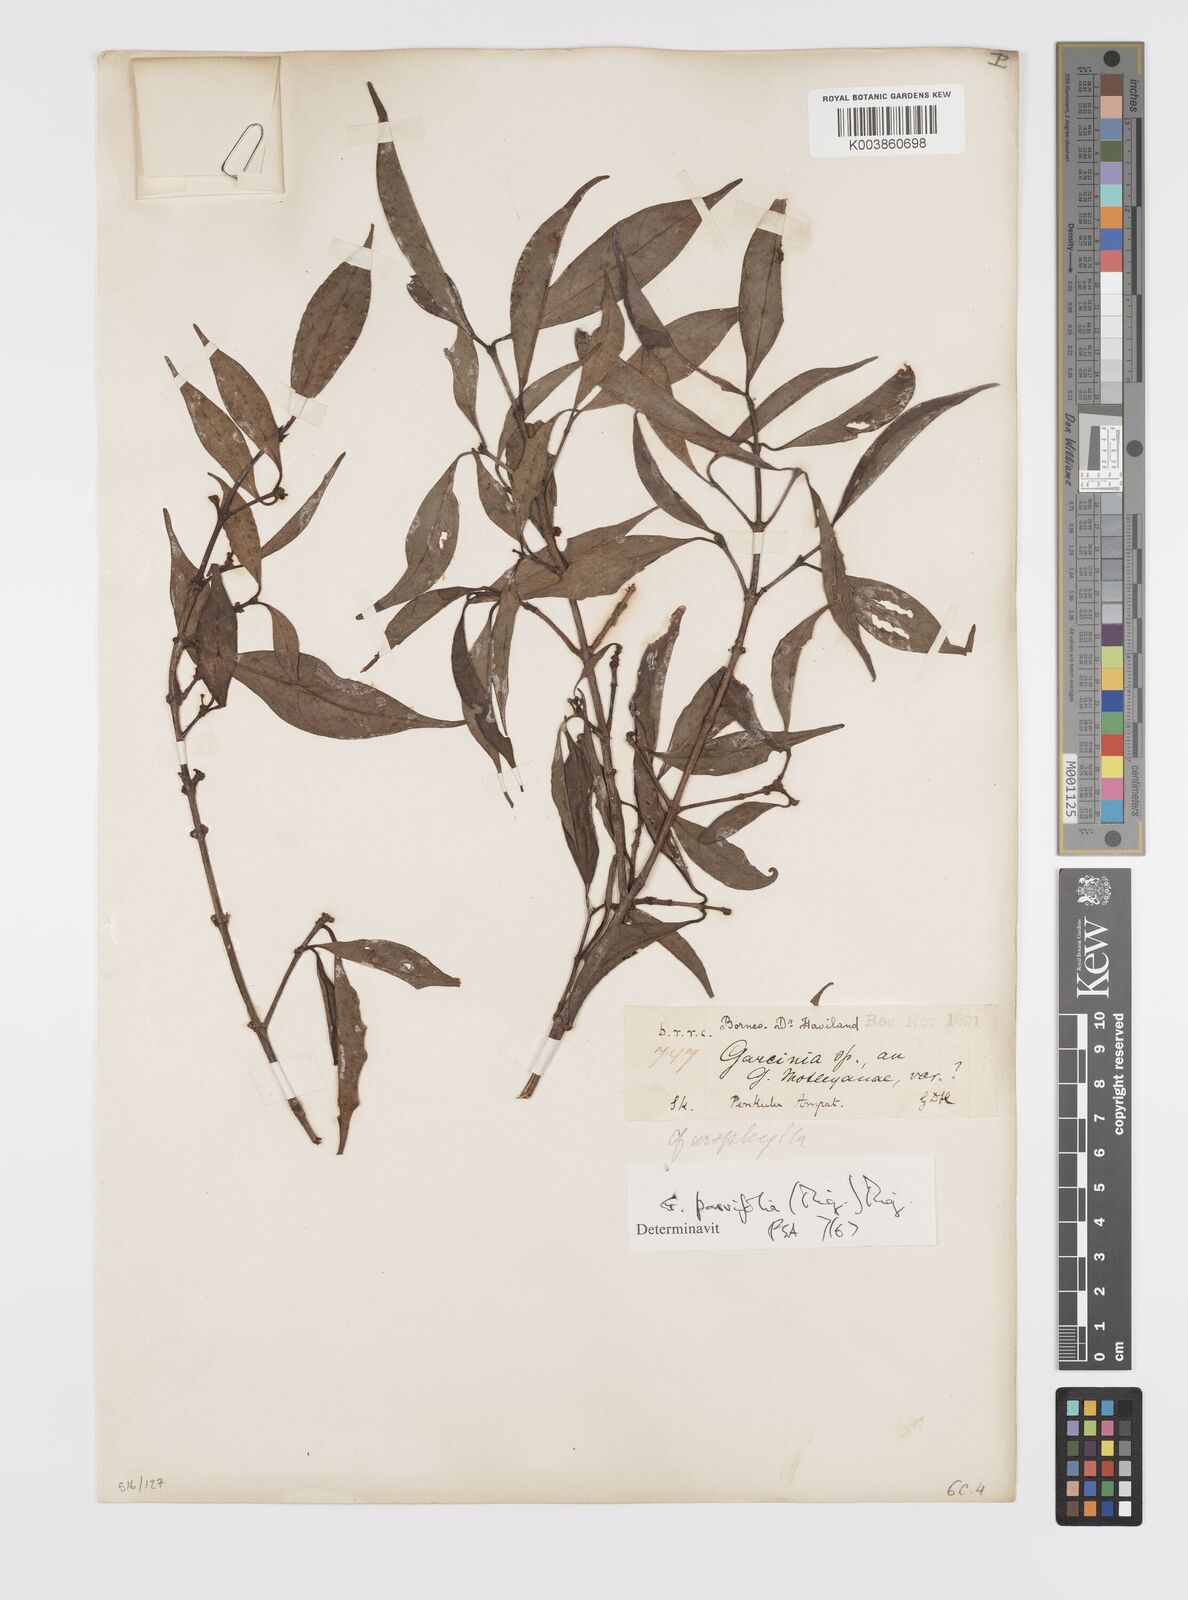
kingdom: Plantae
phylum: Tracheophyta
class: Magnoliopsida
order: Malpighiales
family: Clusiaceae
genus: Garcinia
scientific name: Garcinia parvifolia
